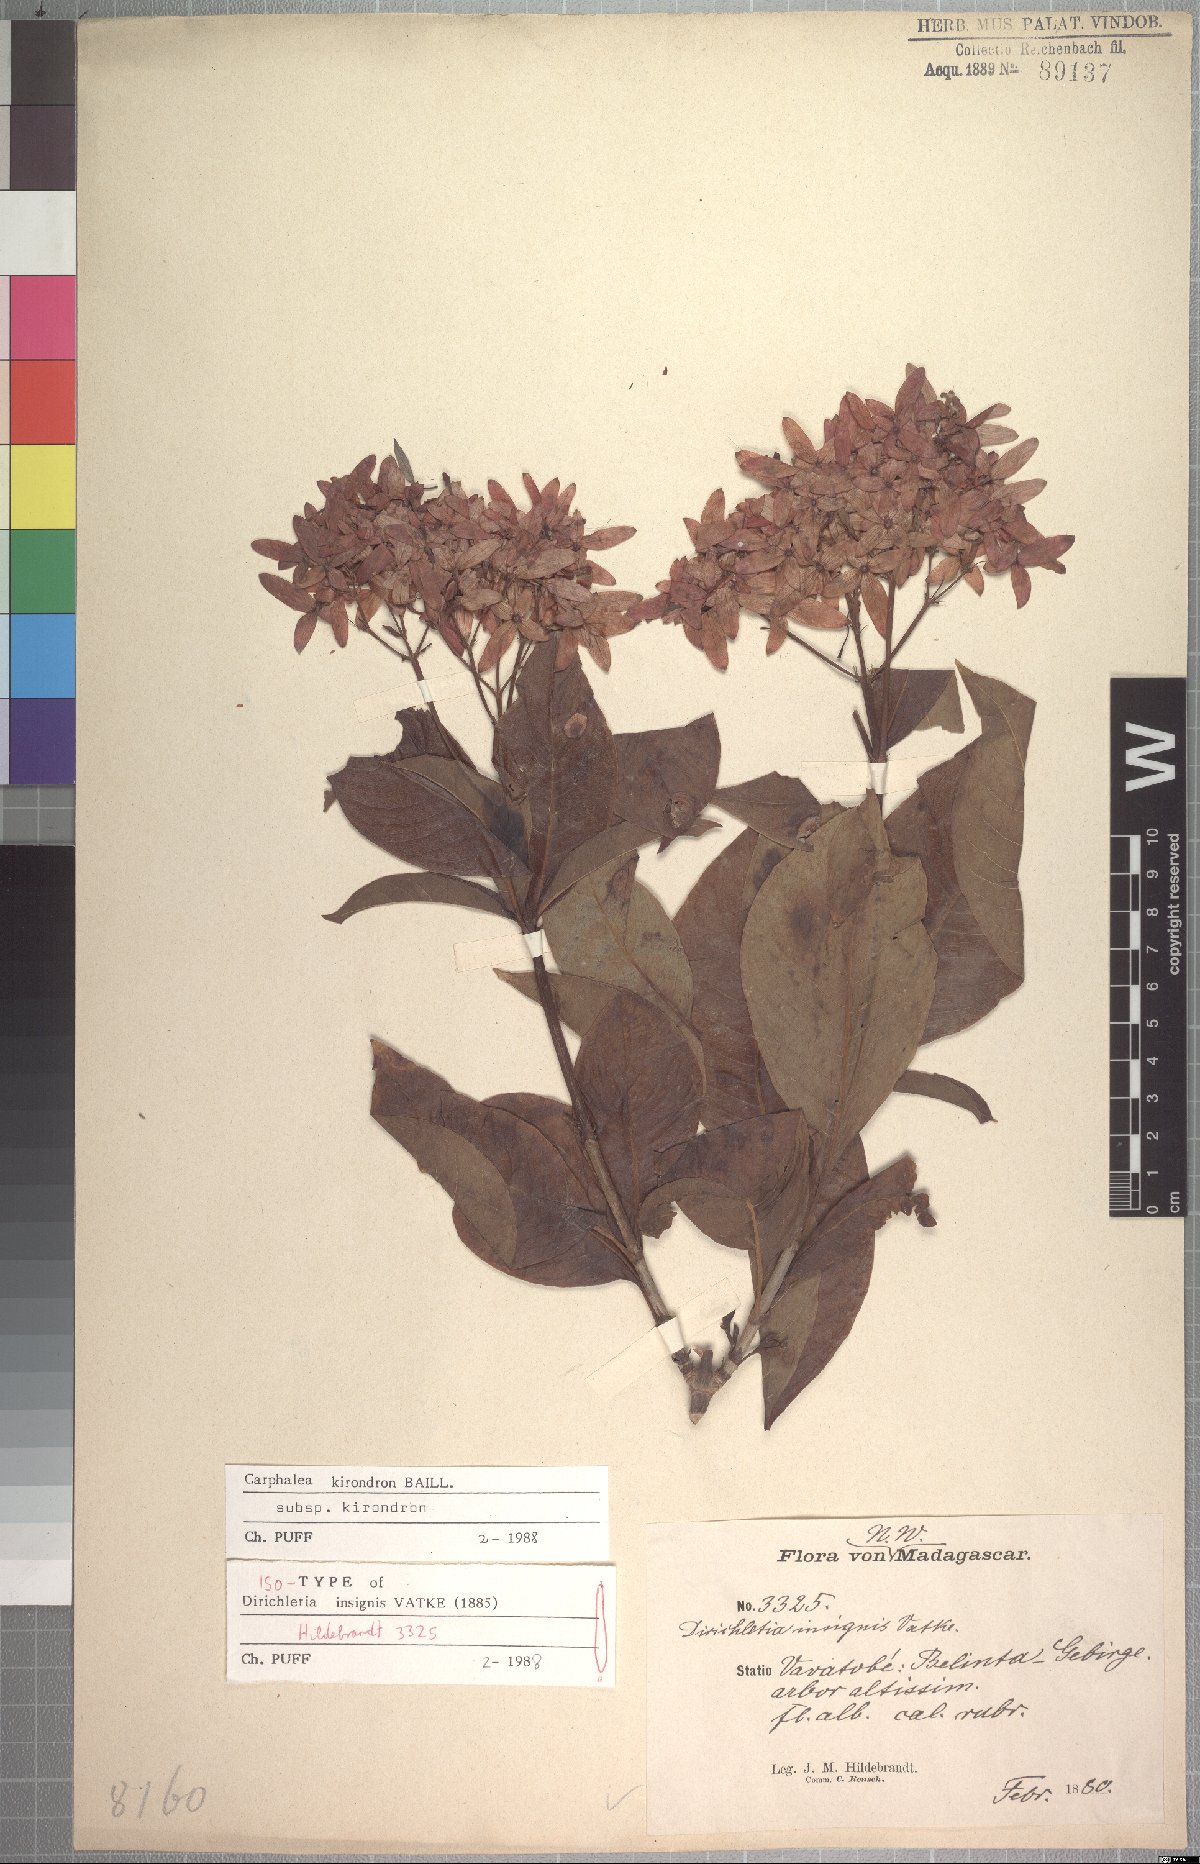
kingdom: Plantae
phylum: Tracheophyta
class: Magnoliopsida
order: Gentianales
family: Rubiaceae
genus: Paracarphalea
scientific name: Paracarphalea kirondron
